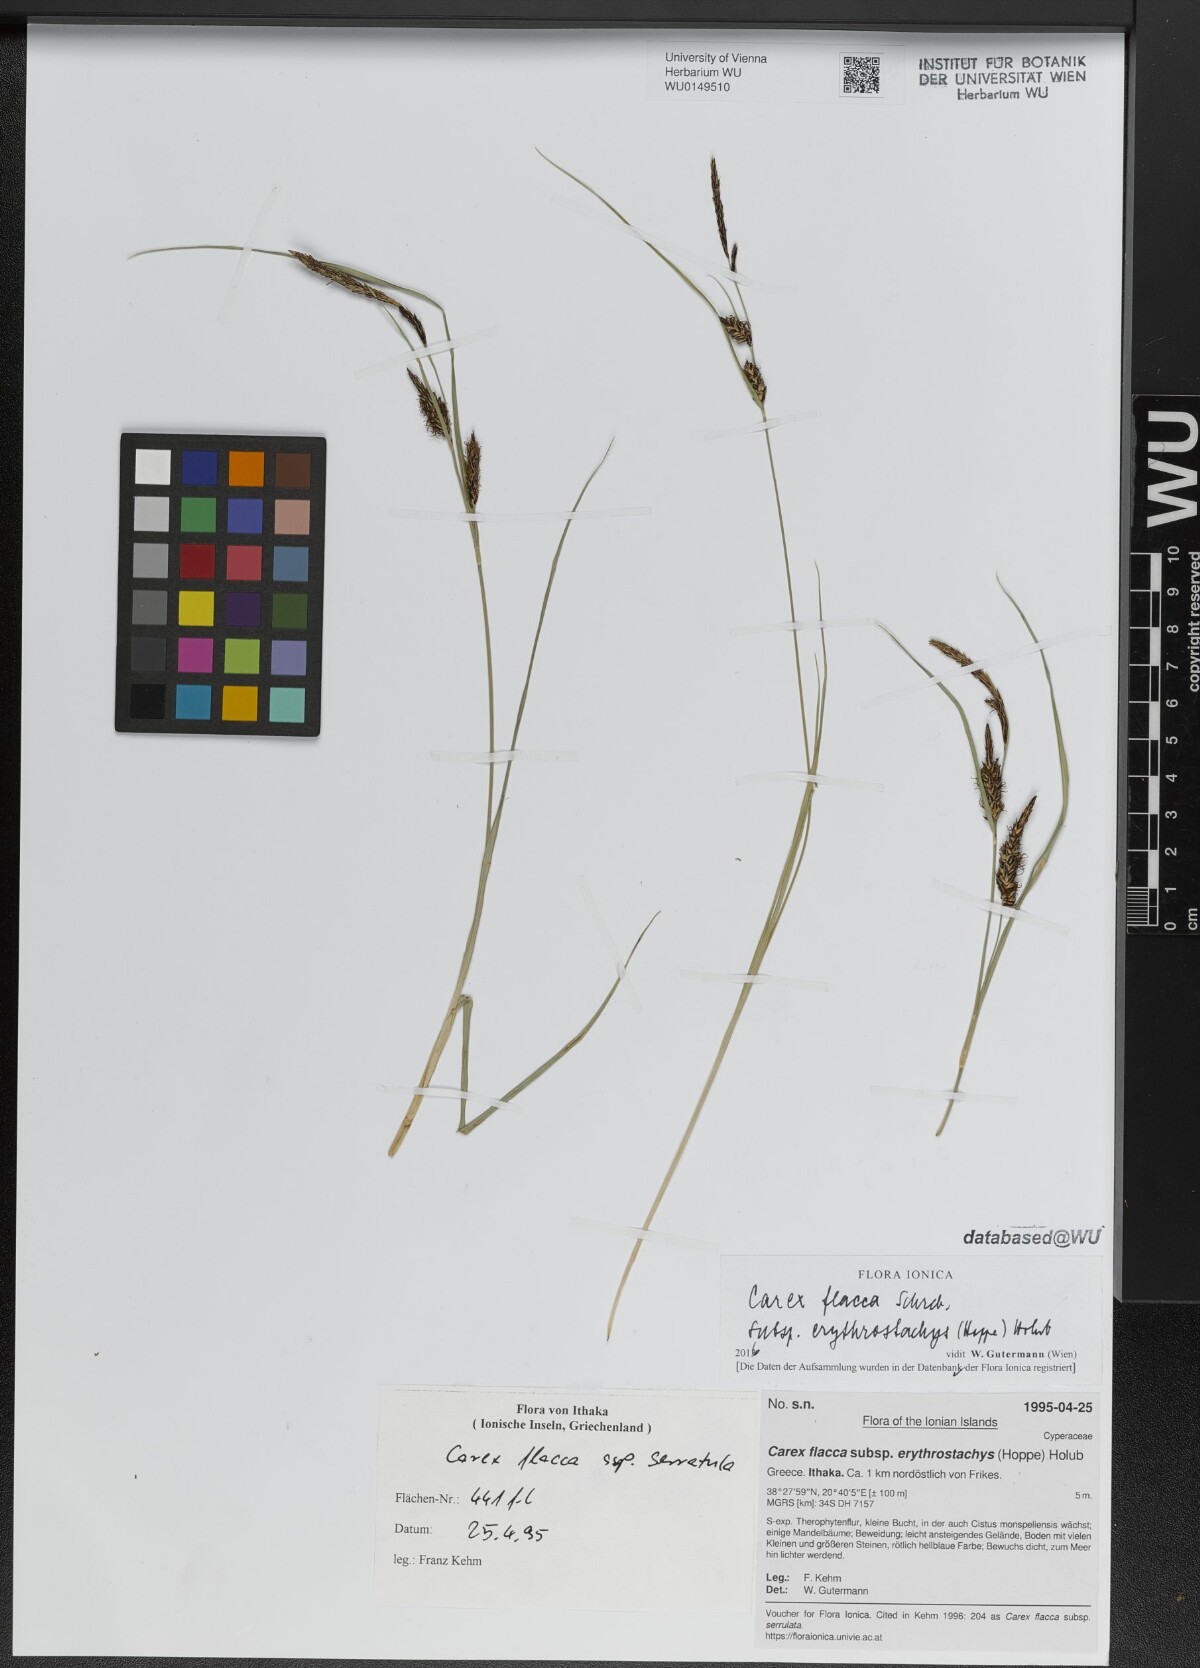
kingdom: Plantae
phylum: Tracheophyta
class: Liliopsida
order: Poales
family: Cyperaceae
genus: Carex
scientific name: Carex flacca
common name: Glaucous sedge
